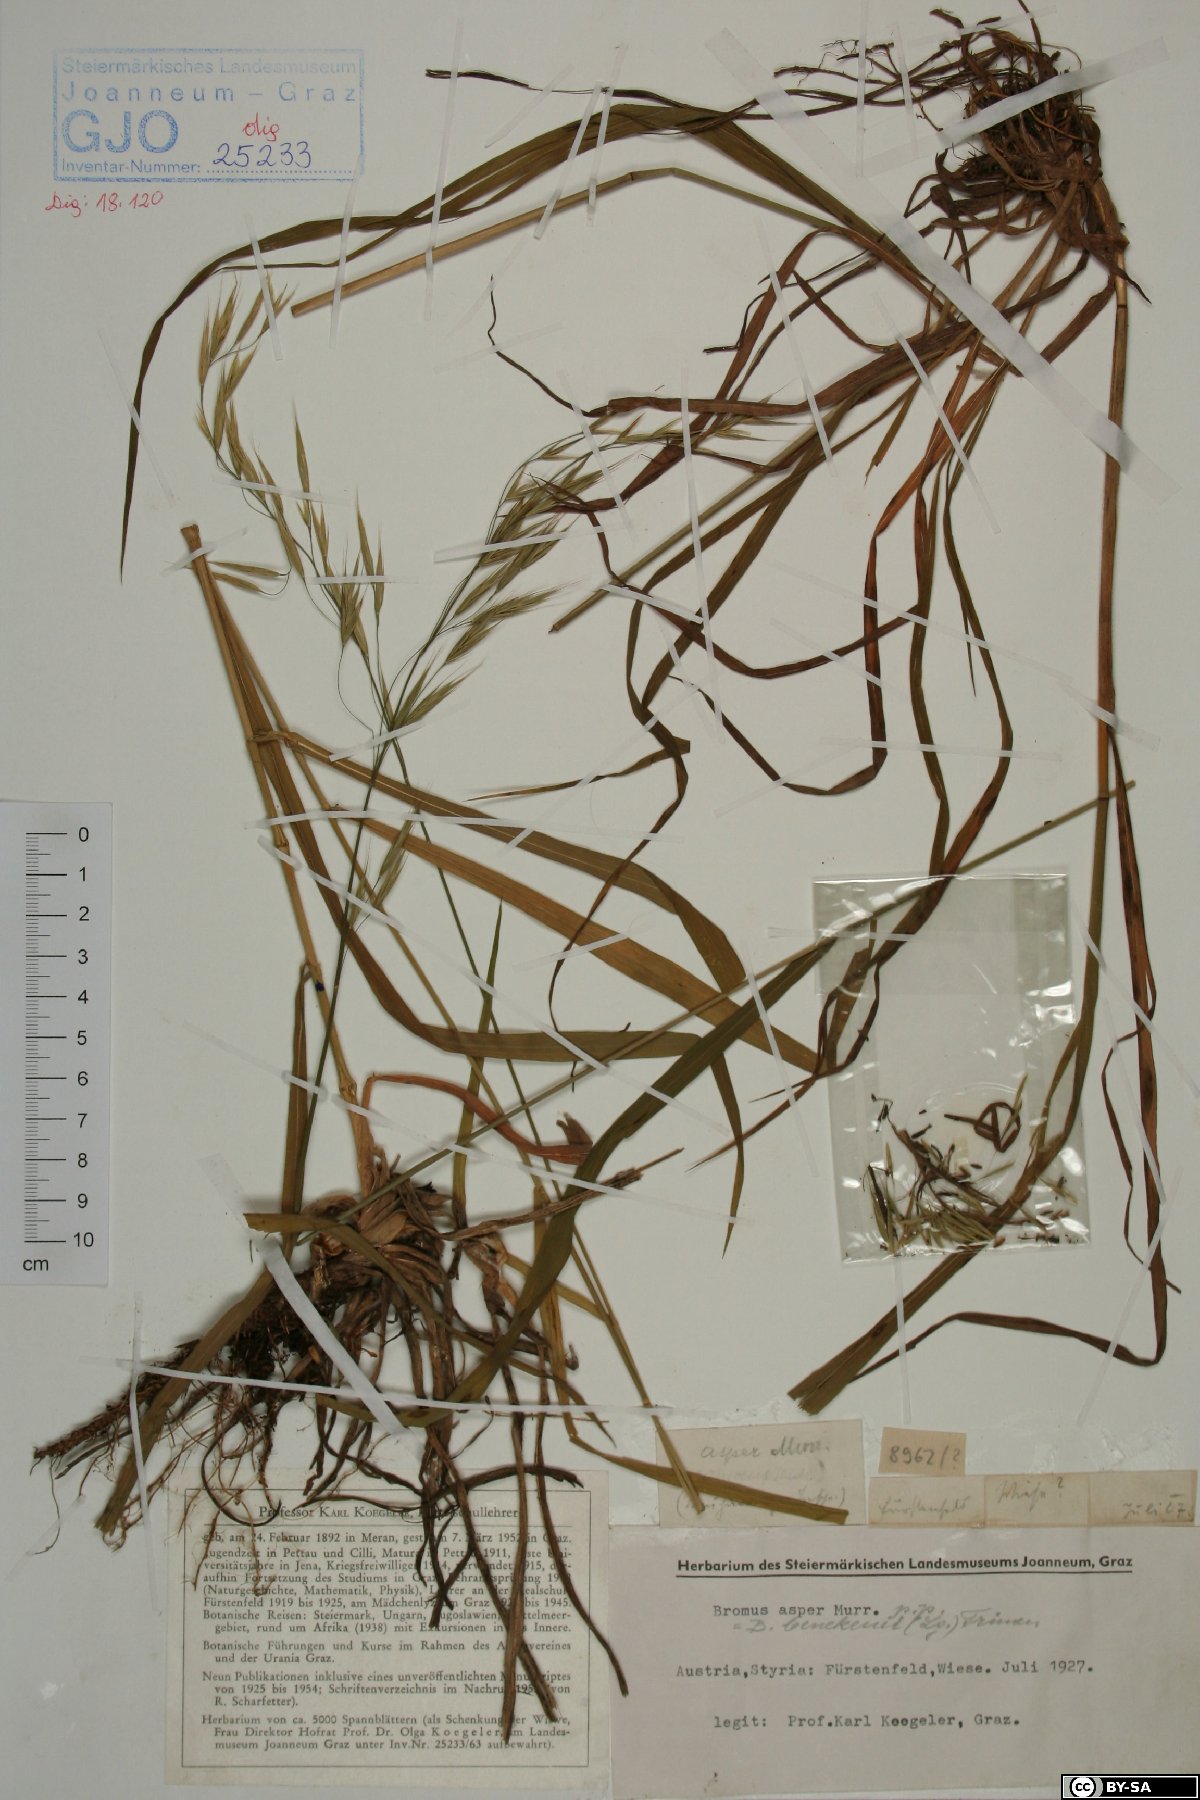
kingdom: Plantae
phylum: Tracheophyta
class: Liliopsida
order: Poales
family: Poaceae
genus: Bromus
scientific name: Bromus ramosus
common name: Hairy brome
